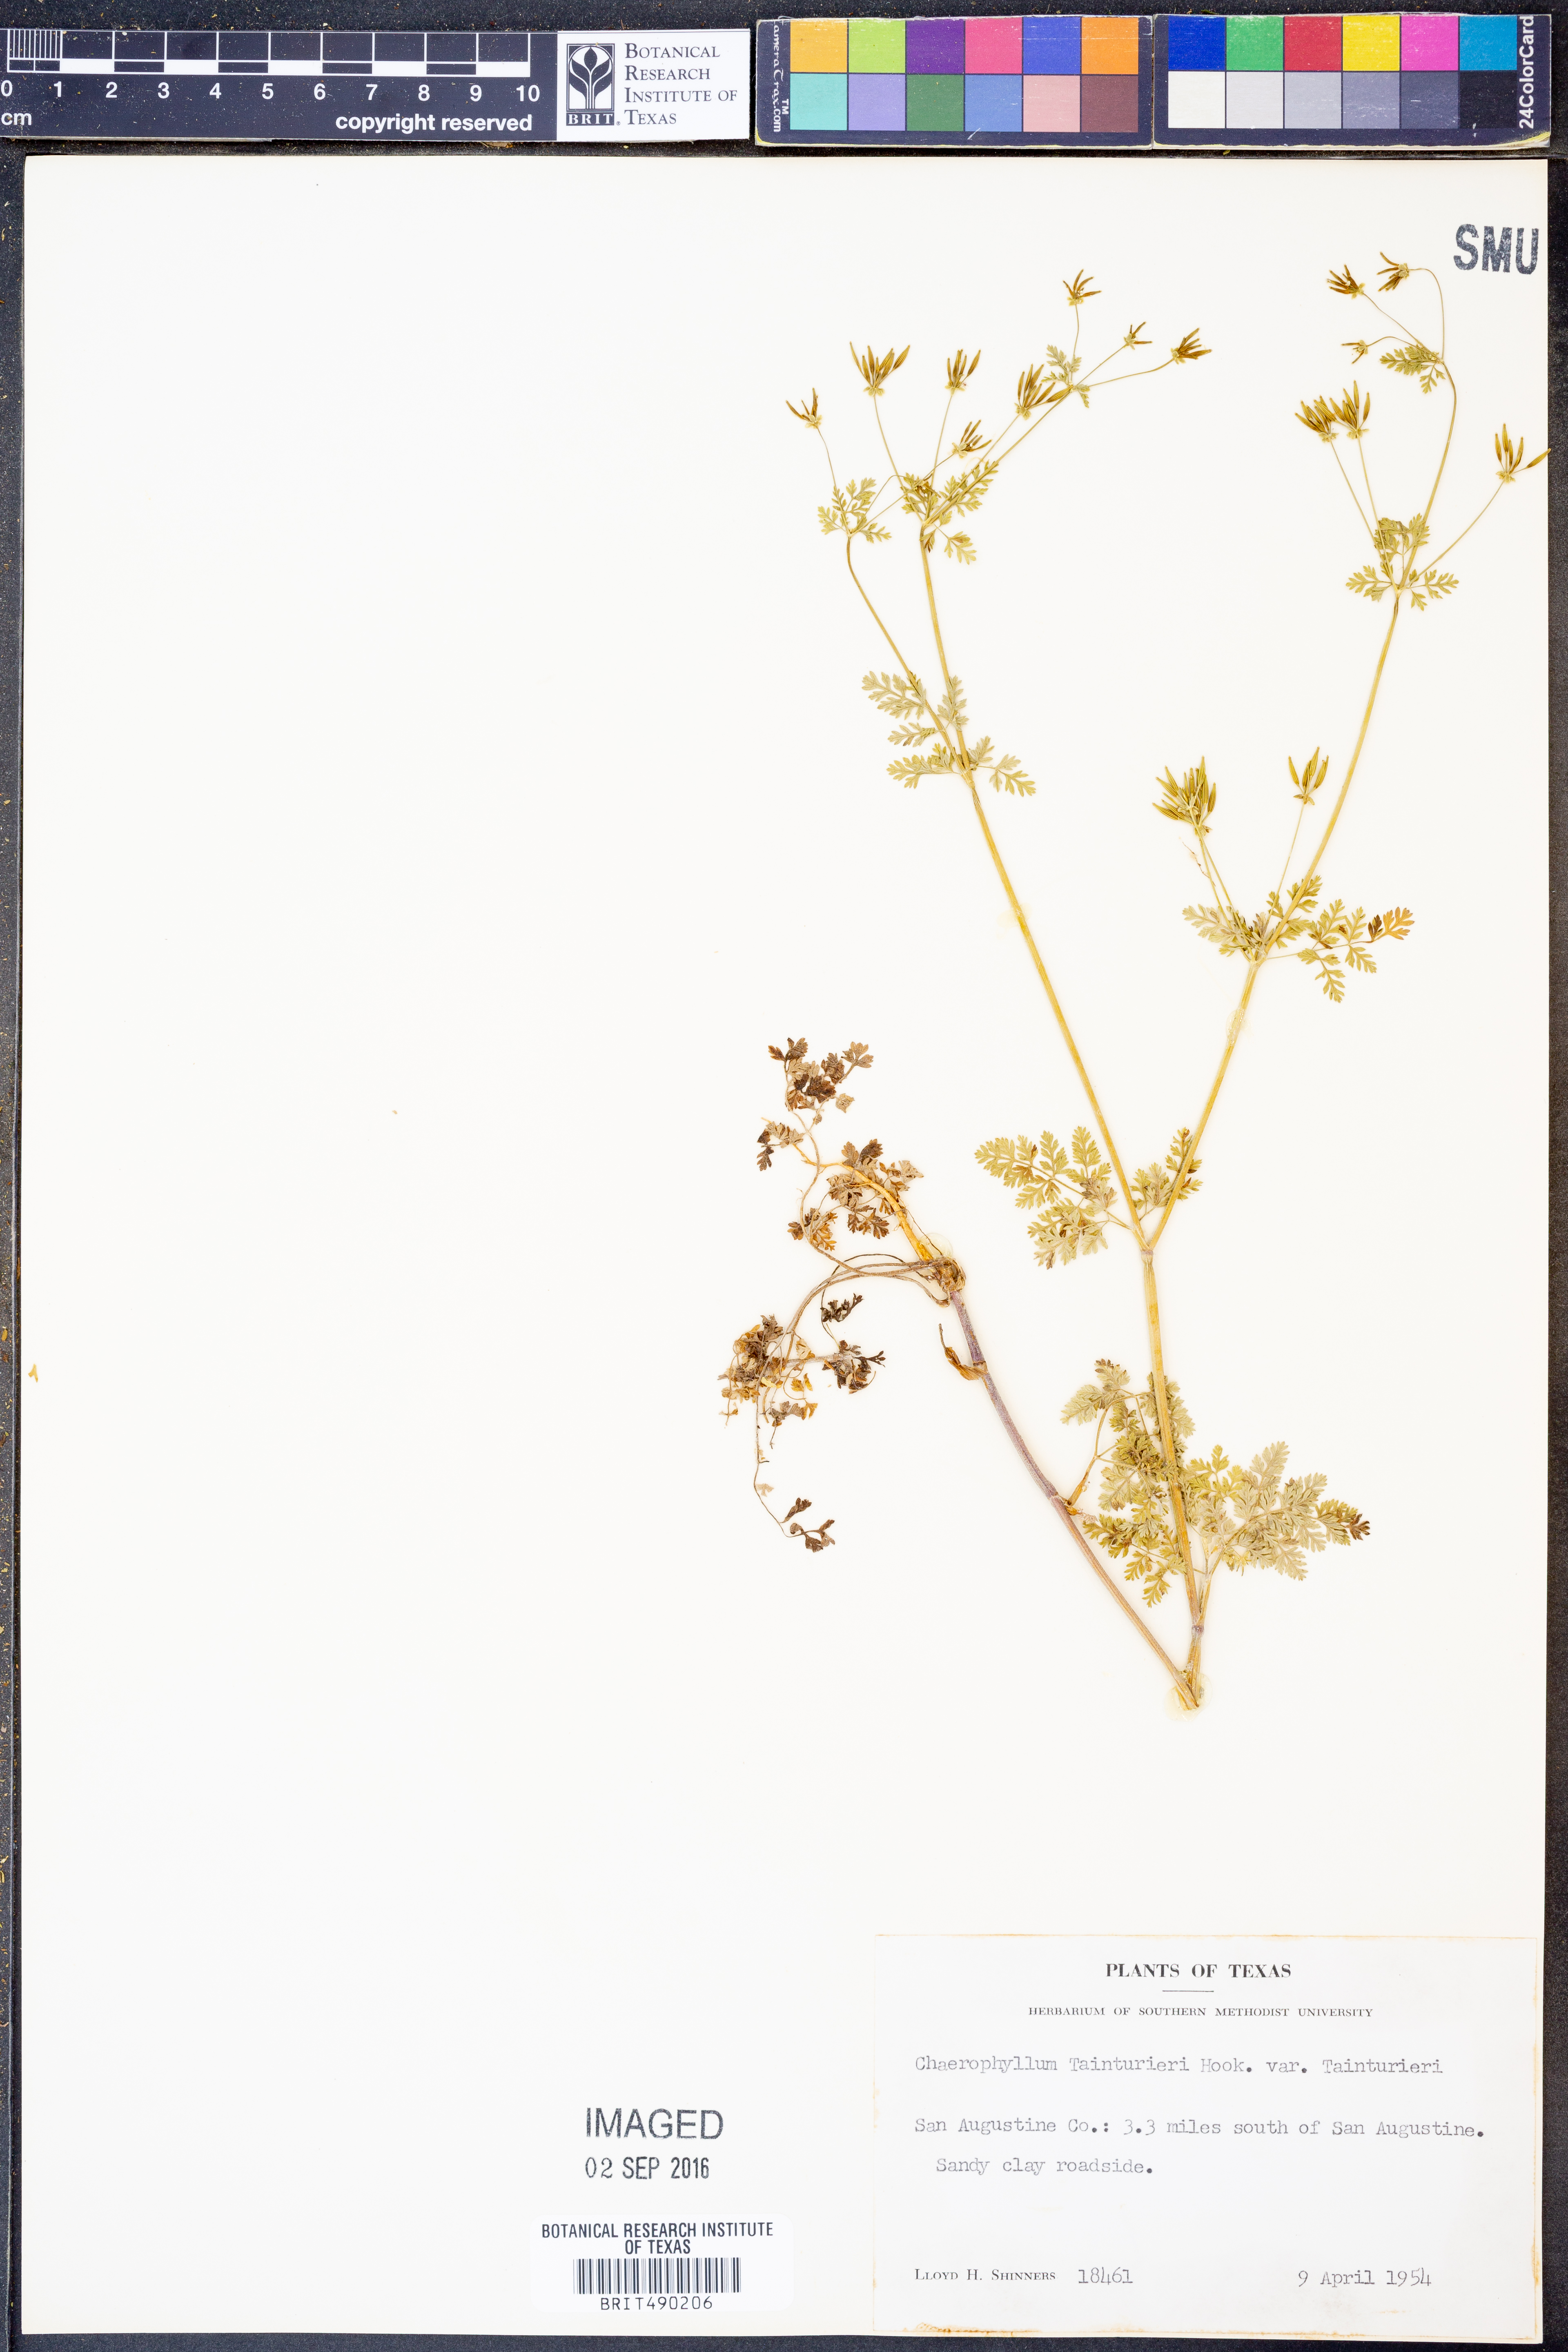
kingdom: Plantae
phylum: Tracheophyta
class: Magnoliopsida
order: Apiales
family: Apiaceae
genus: Chaerophyllum
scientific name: Chaerophyllum tainturieri
